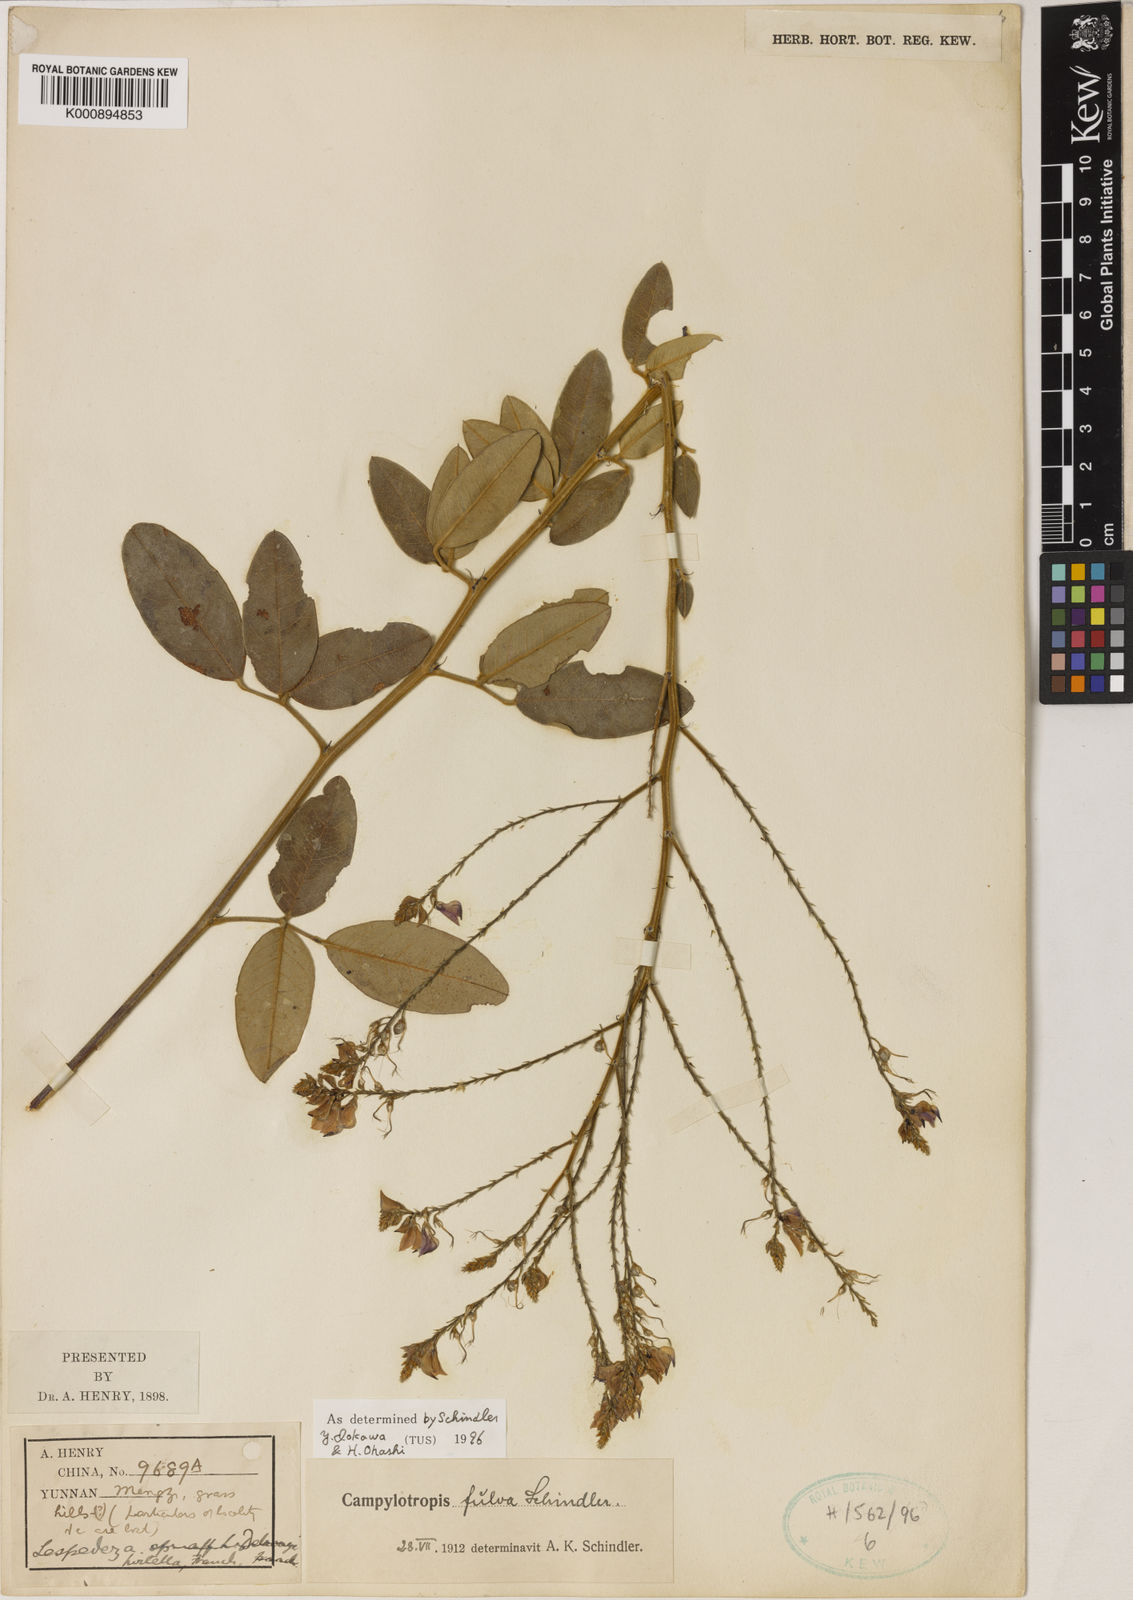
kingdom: Plantae
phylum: Tracheophyta
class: Magnoliopsida
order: Fabales
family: Fabaceae
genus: Campylotropis
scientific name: Campylotropis fulva
